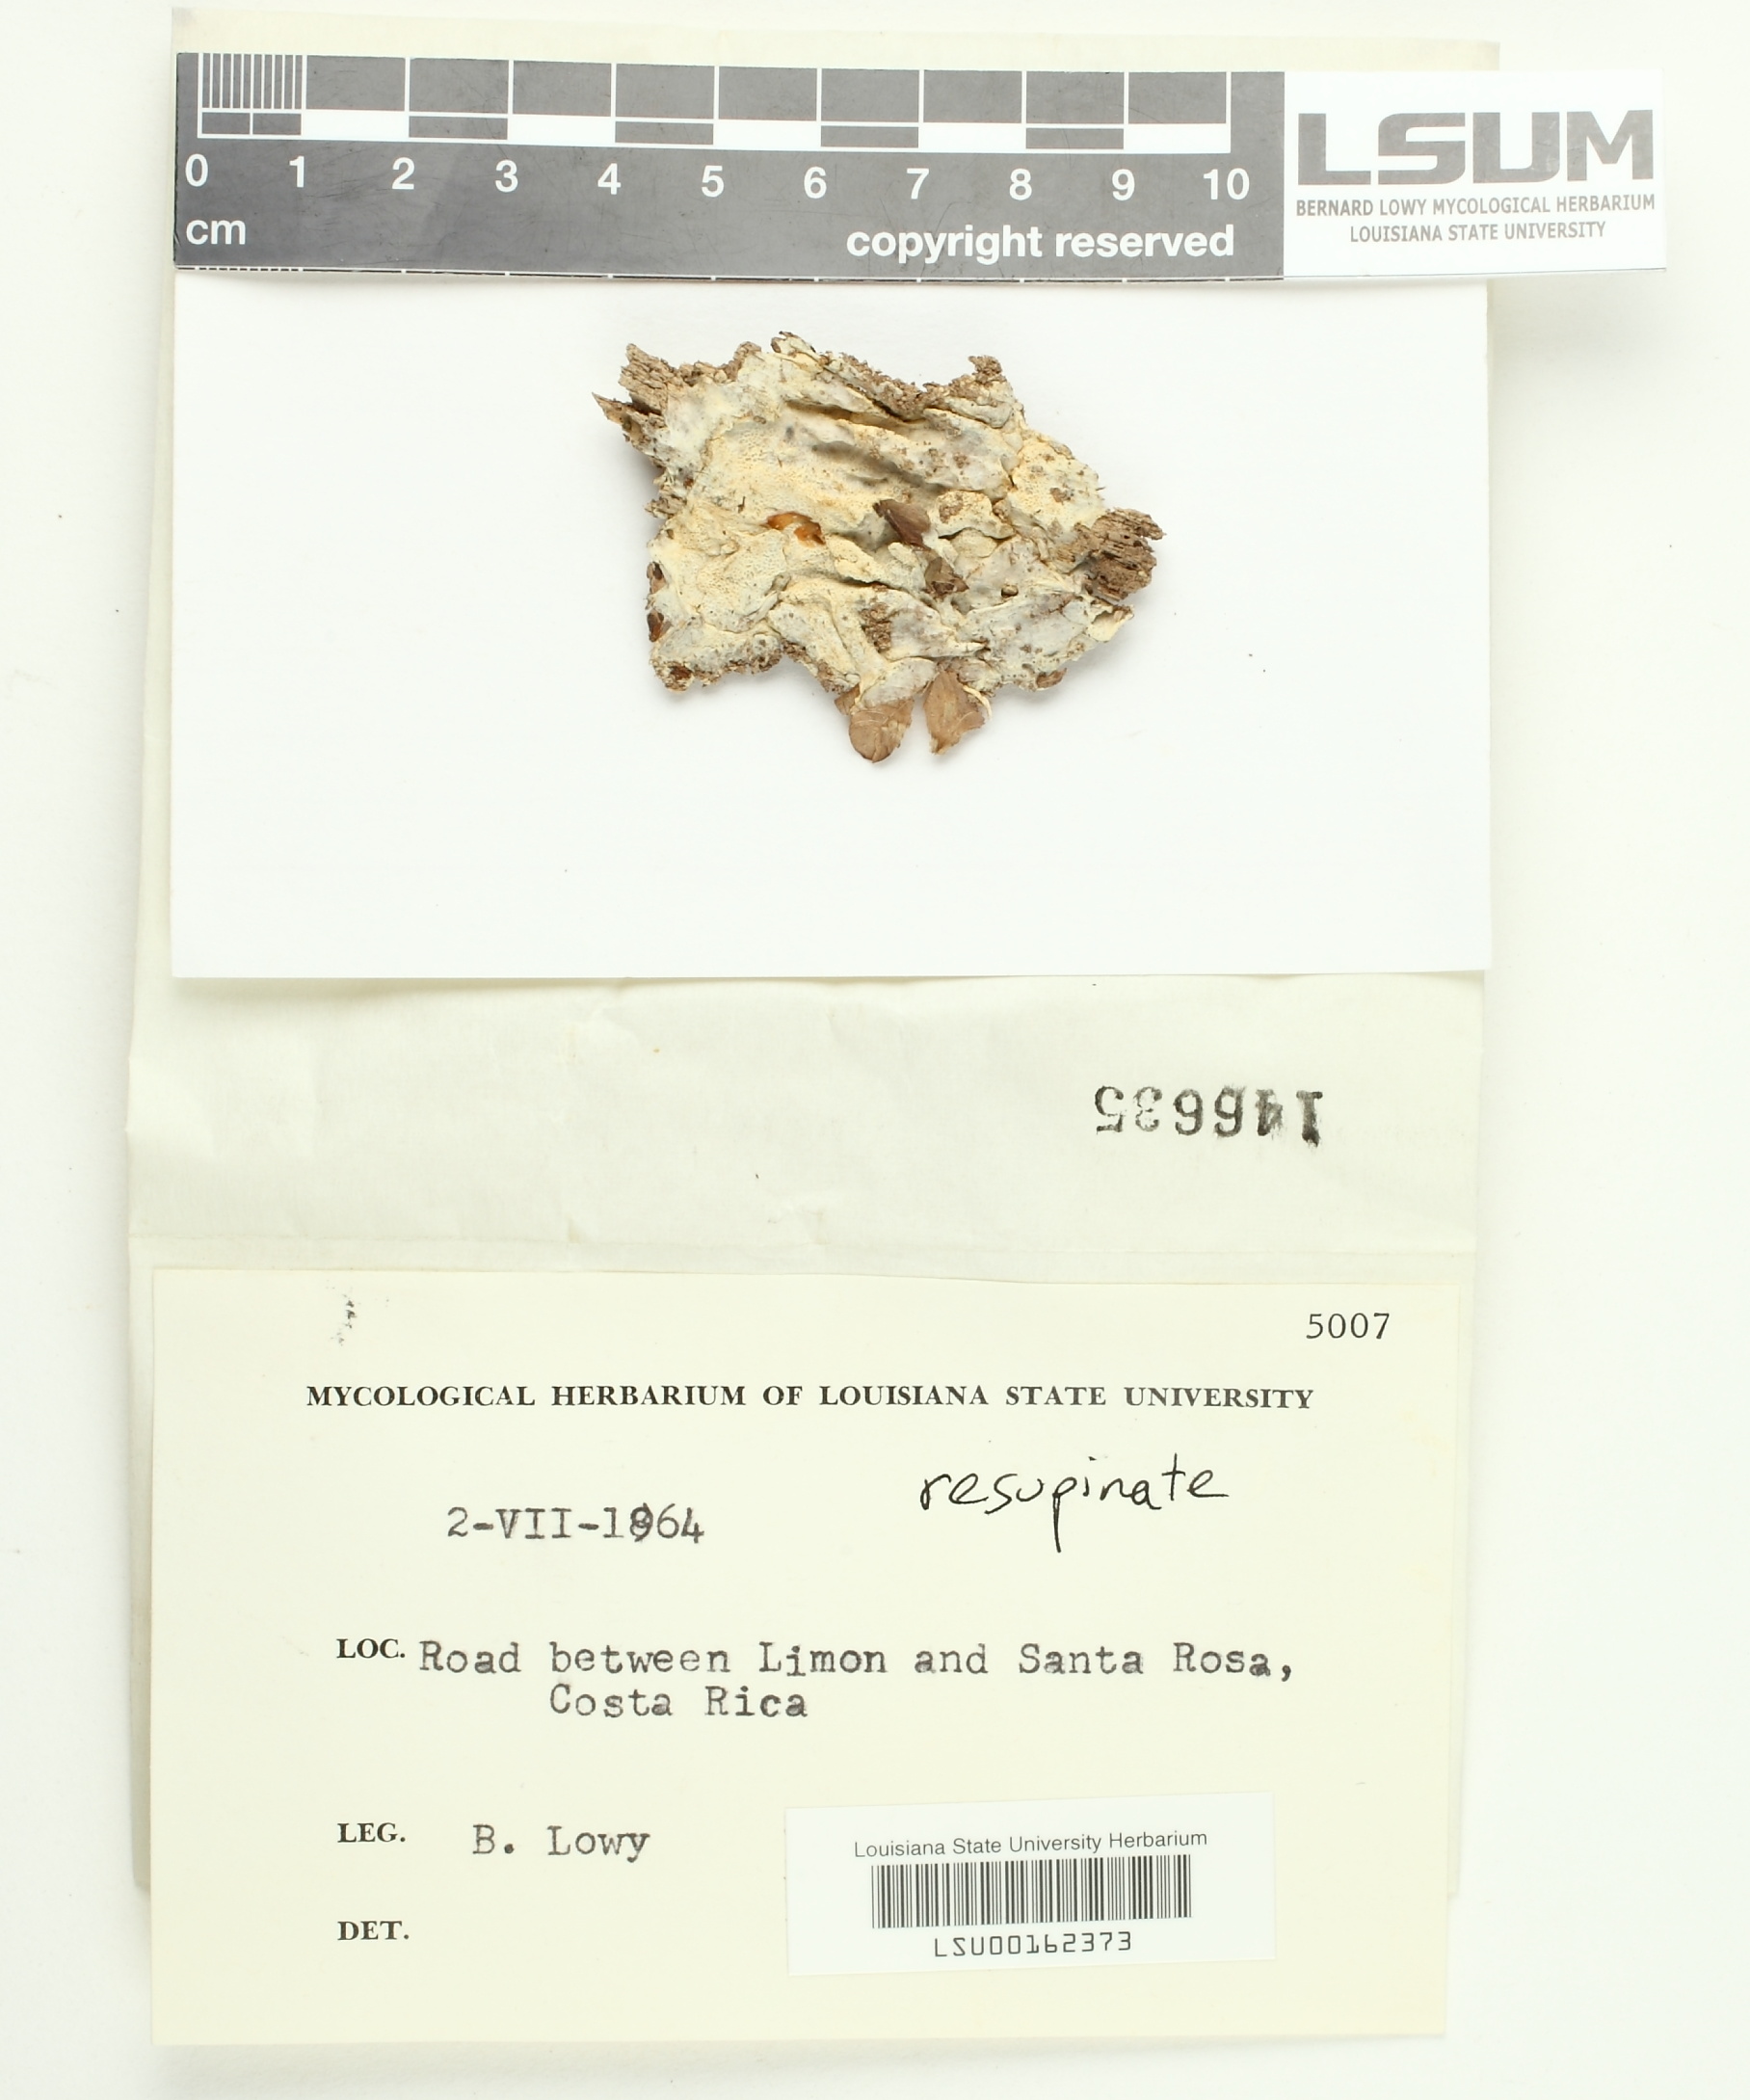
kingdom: Fungi
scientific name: Fungi
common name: Fungi
